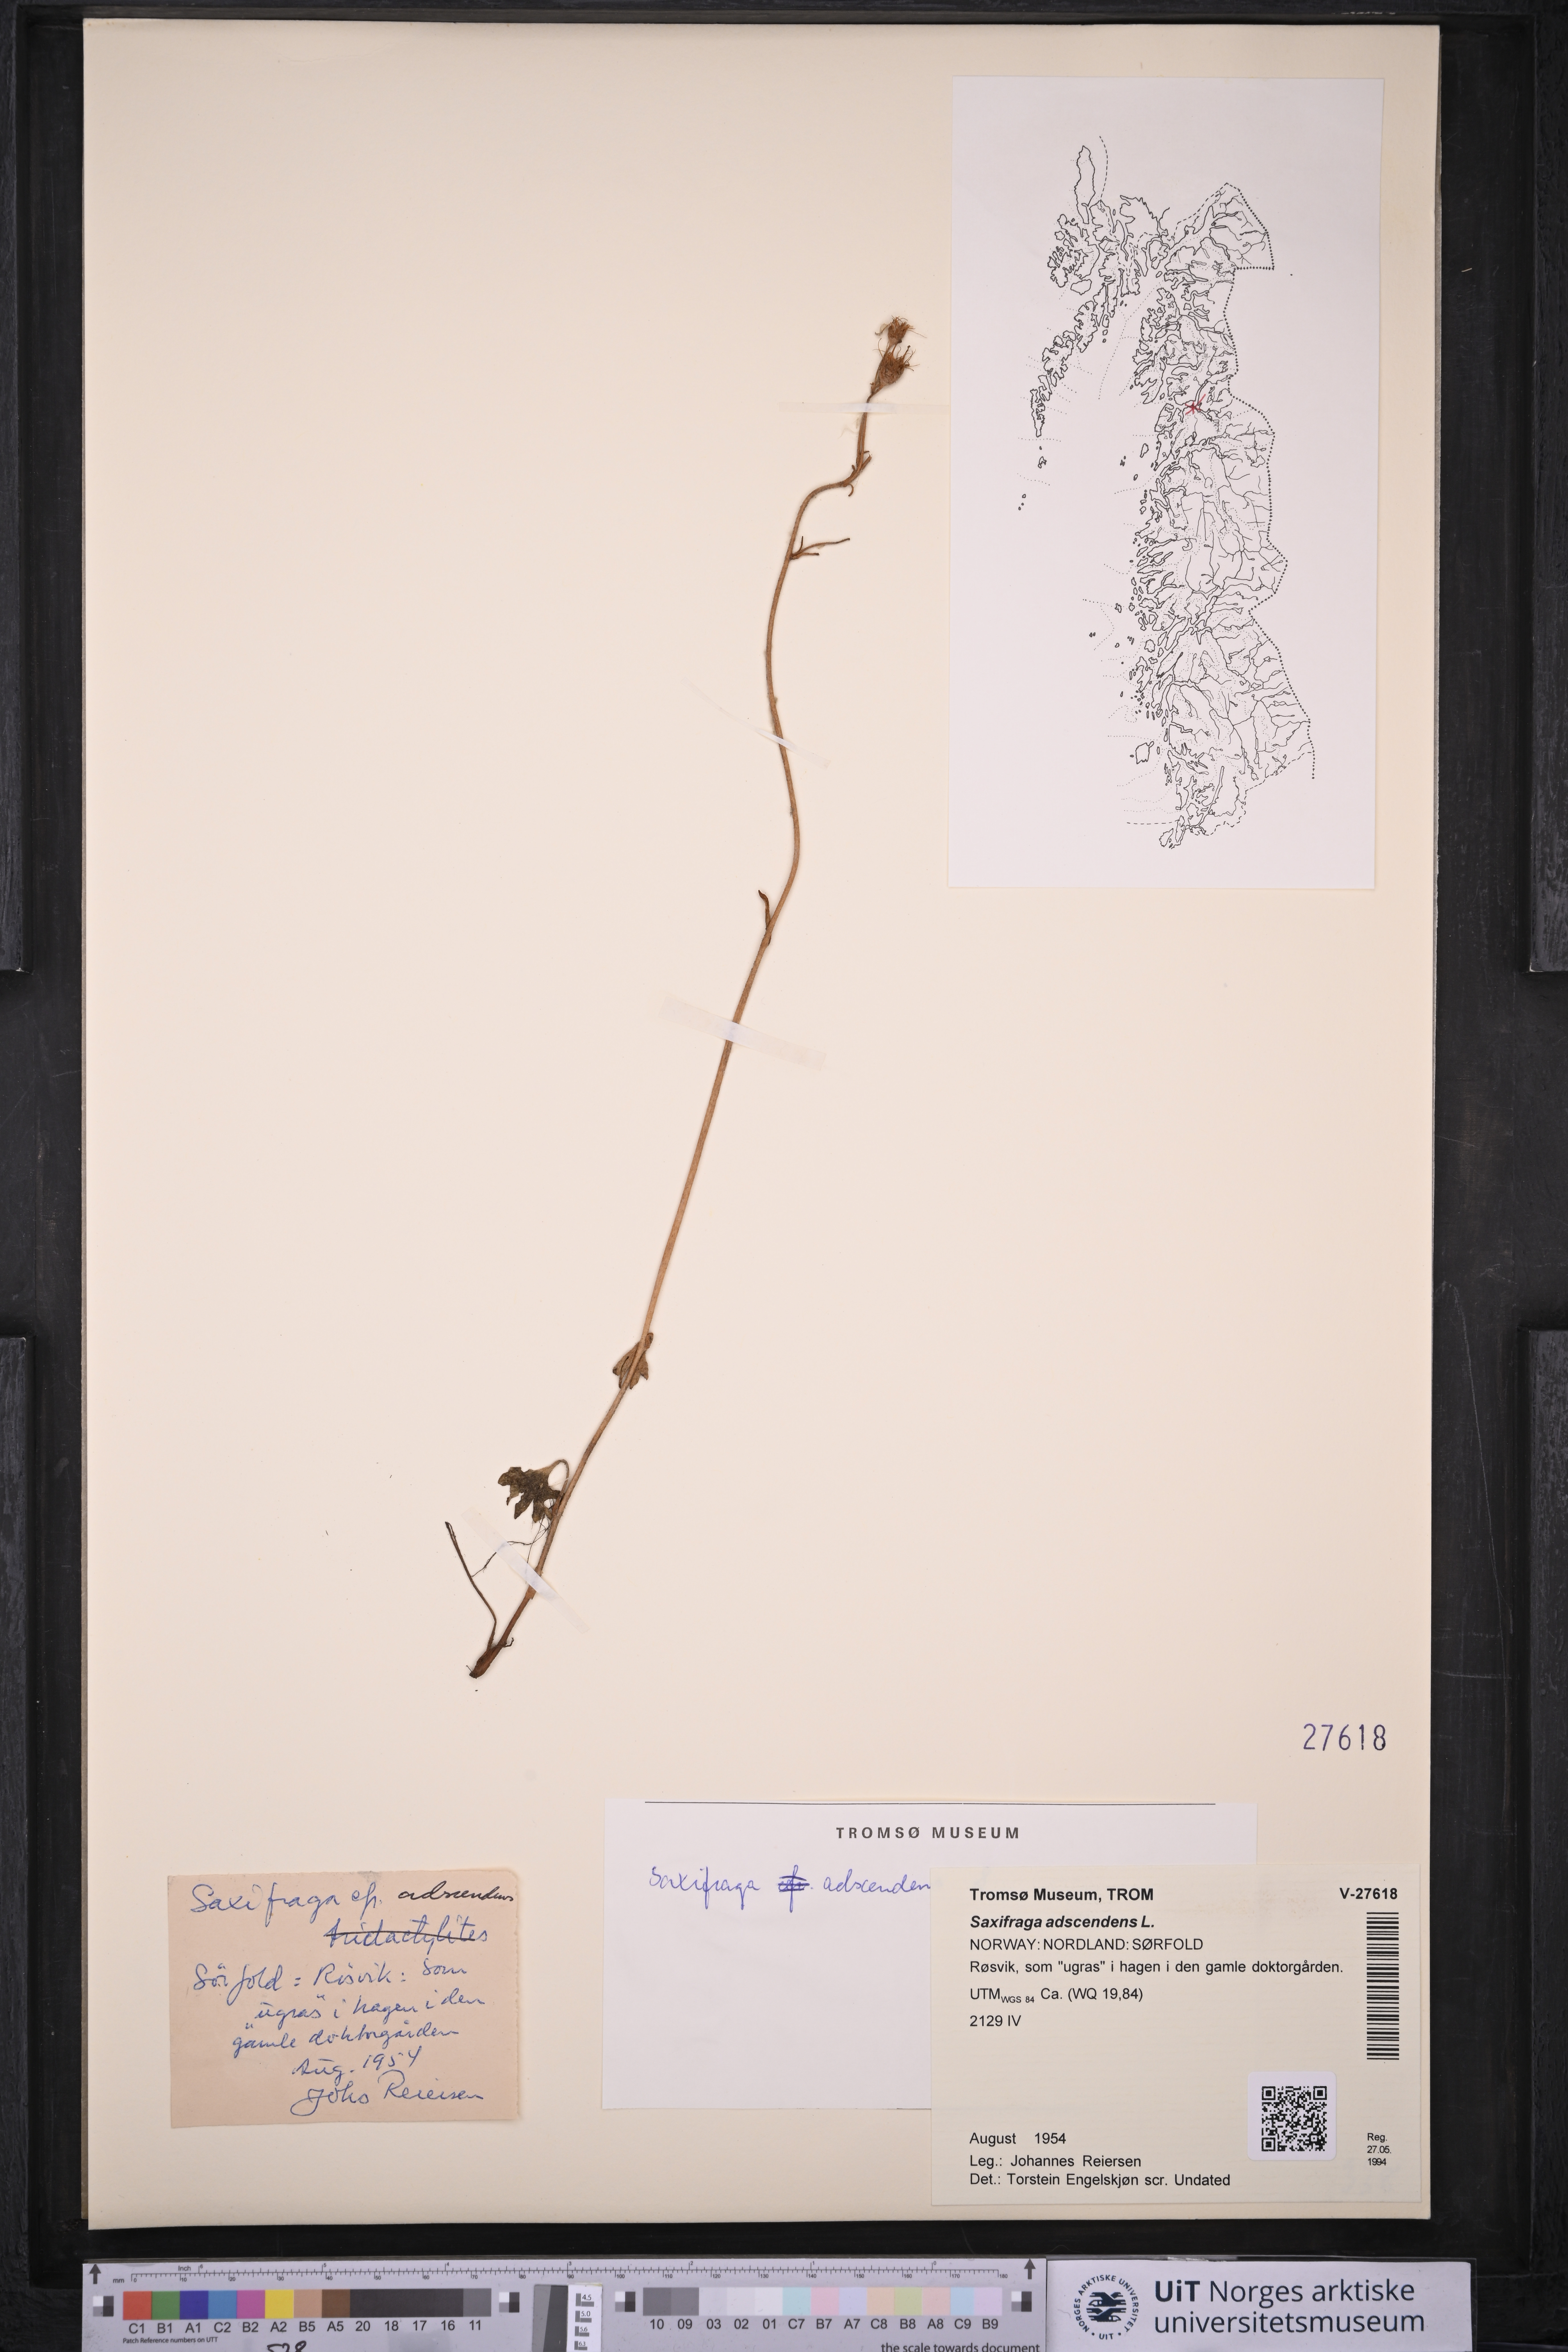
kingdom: Plantae
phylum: Tracheophyta
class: Magnoliopsida
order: Saxifragales
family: Saxifragaceae
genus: Saxifraga
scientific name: Saxifraga adscendens
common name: Ascending saxifrage
